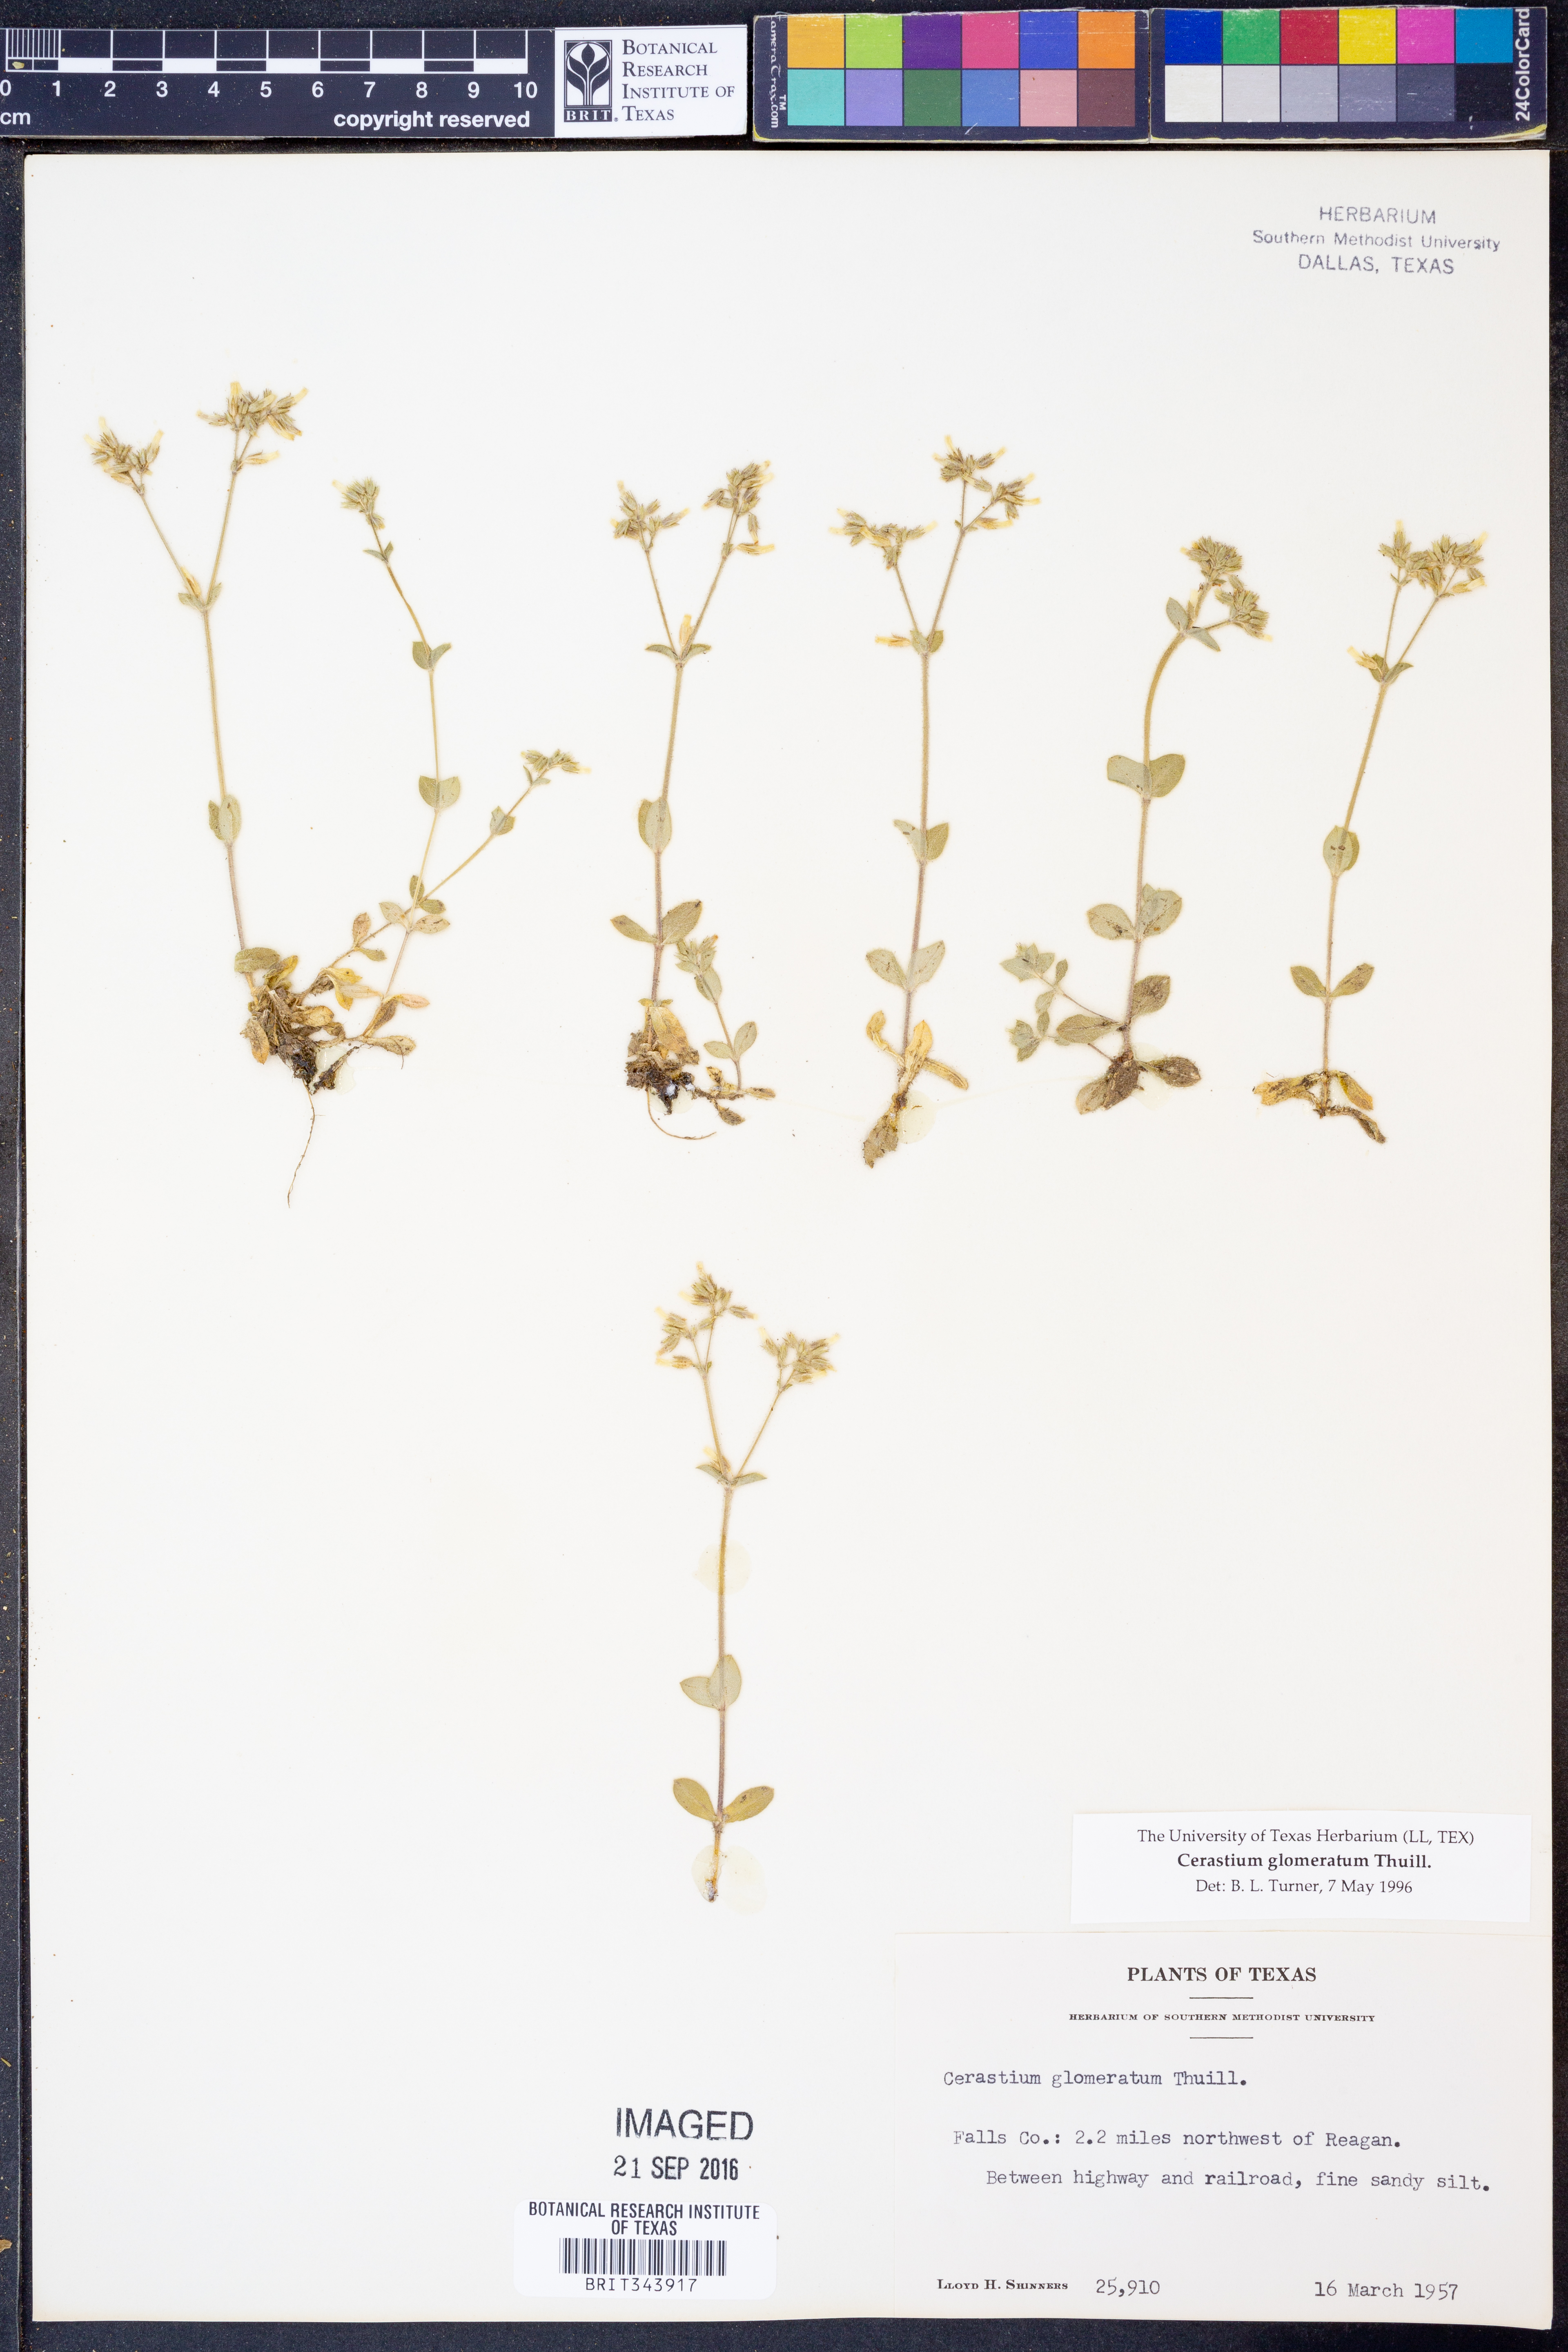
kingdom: Plantae
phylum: Tracheophyta
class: Magnoliopsida
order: Caryophyllales
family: Caryophyllaceae
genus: Cerastium
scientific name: Cerastium glomeratum
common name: Sticky chickweed
